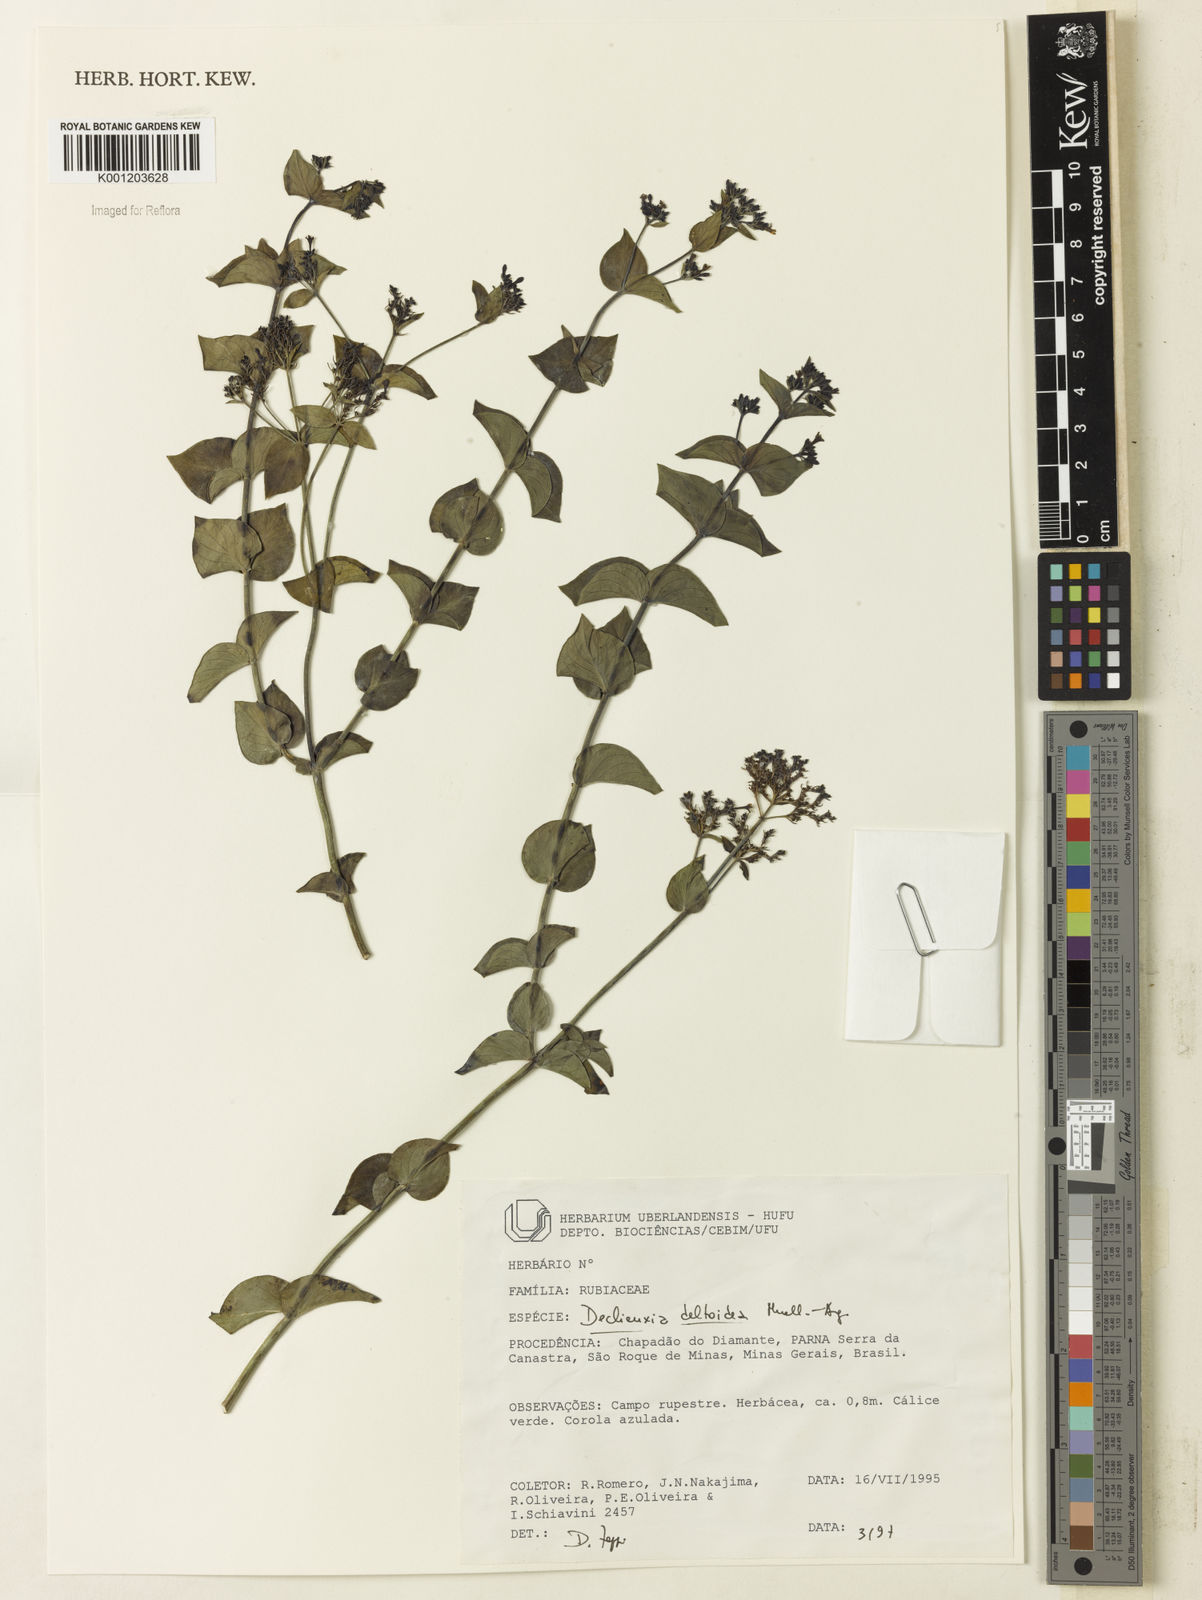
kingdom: Plantae
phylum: Tracheophyta
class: Magnoliopsida
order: Gentianales
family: Rubiaceae
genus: Declieuxia
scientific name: Declieuxia
